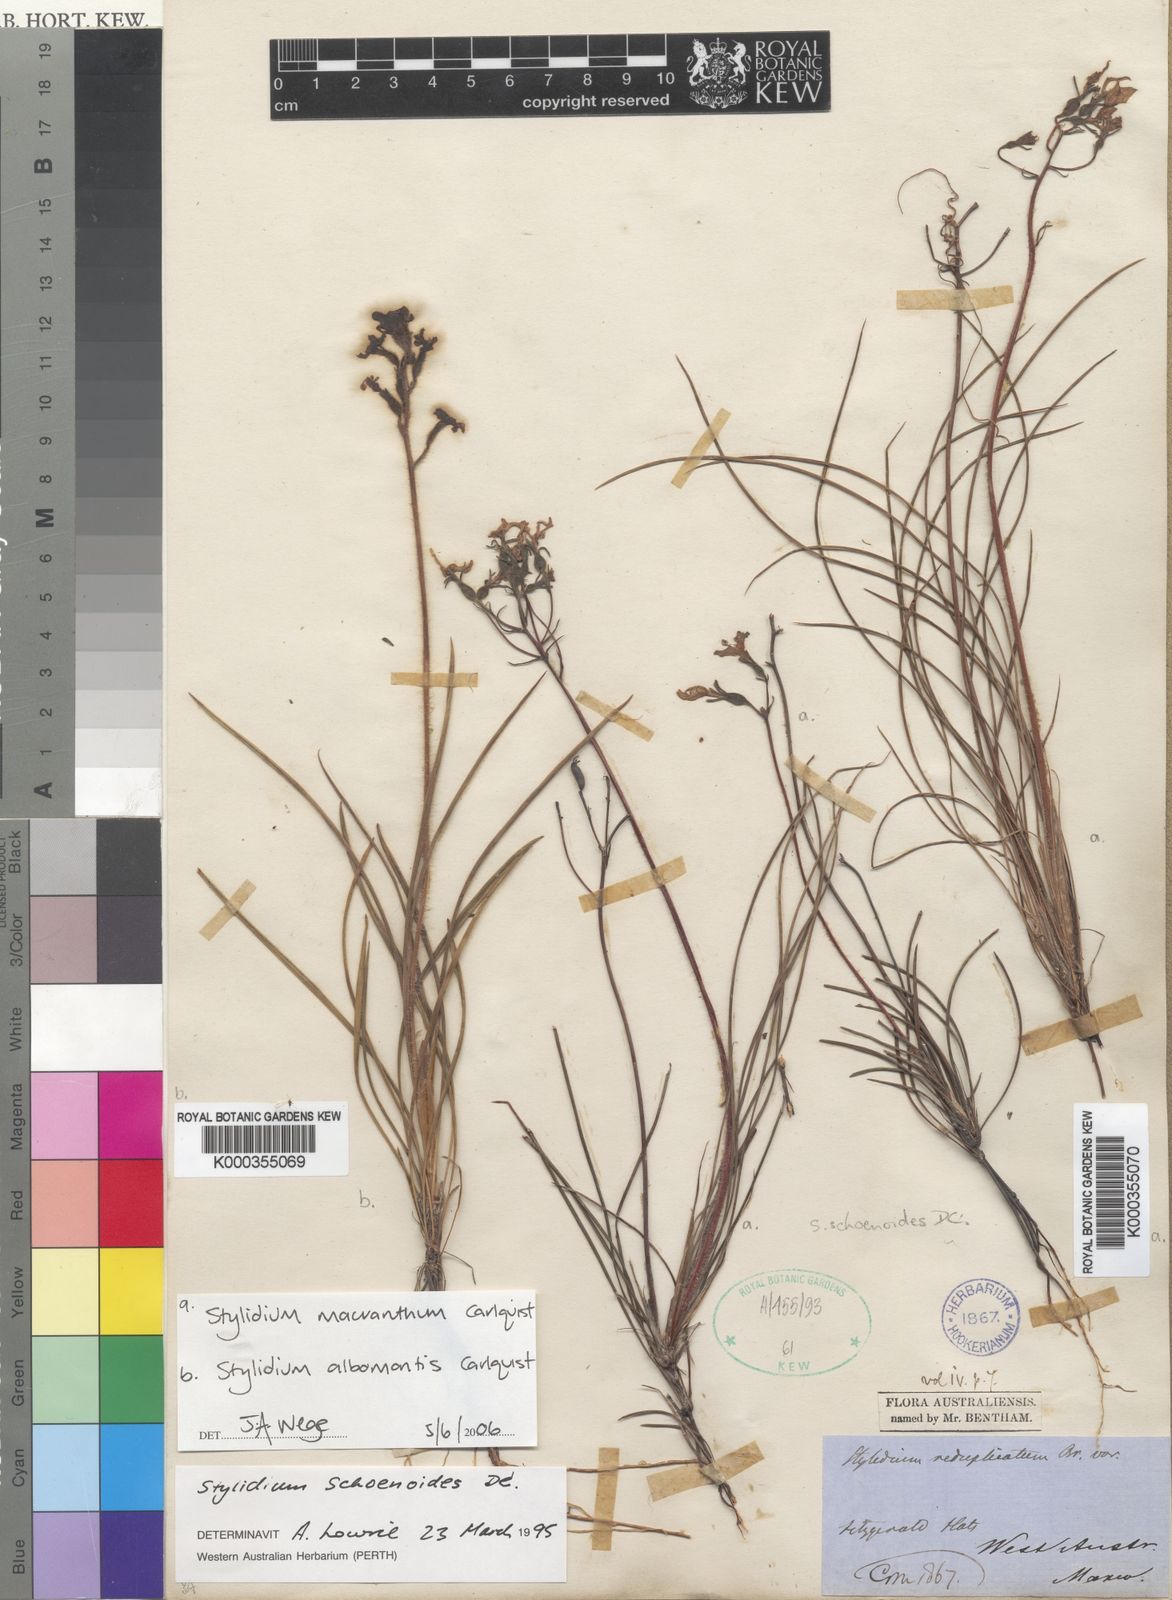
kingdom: Plantae
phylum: Tracheophyta
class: Magnoliopsida
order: Asterales
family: Stylidiaceae
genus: Stylidium
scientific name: Stylidium macranthum
